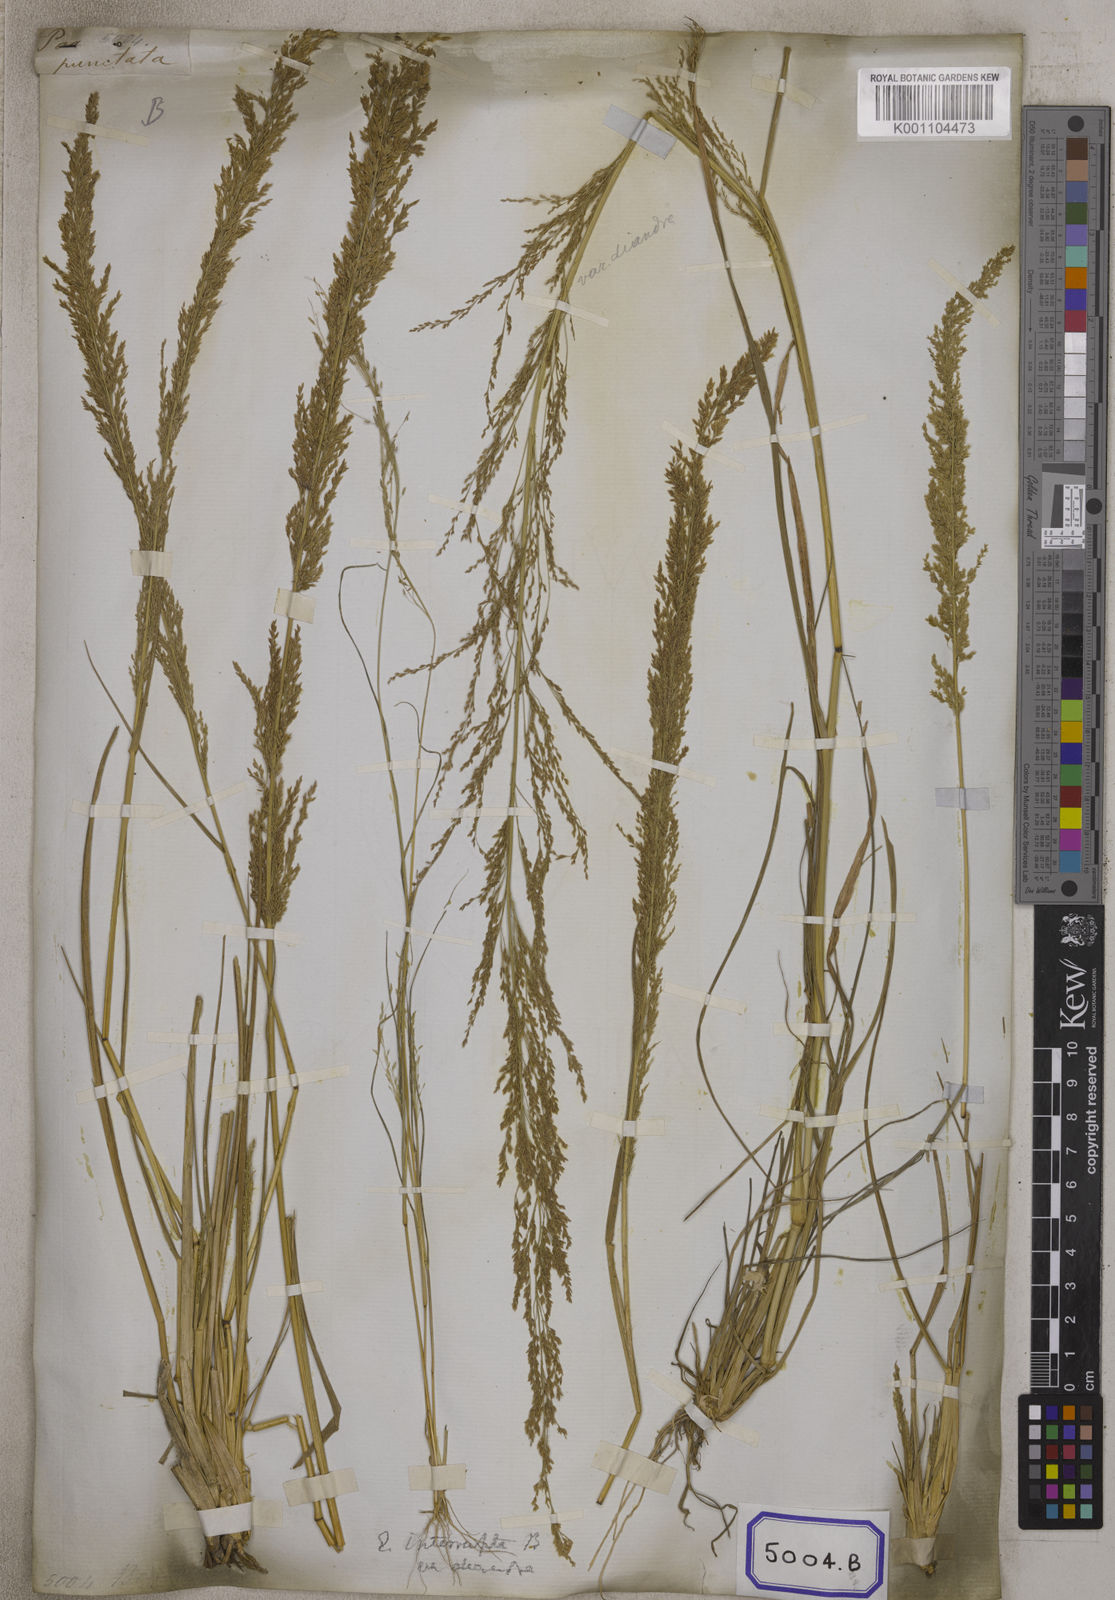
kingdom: Plantae
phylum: Tracheophyta
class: Liliopsida
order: Poales
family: Poaceae
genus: Eragrostis
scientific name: Eragrostis
